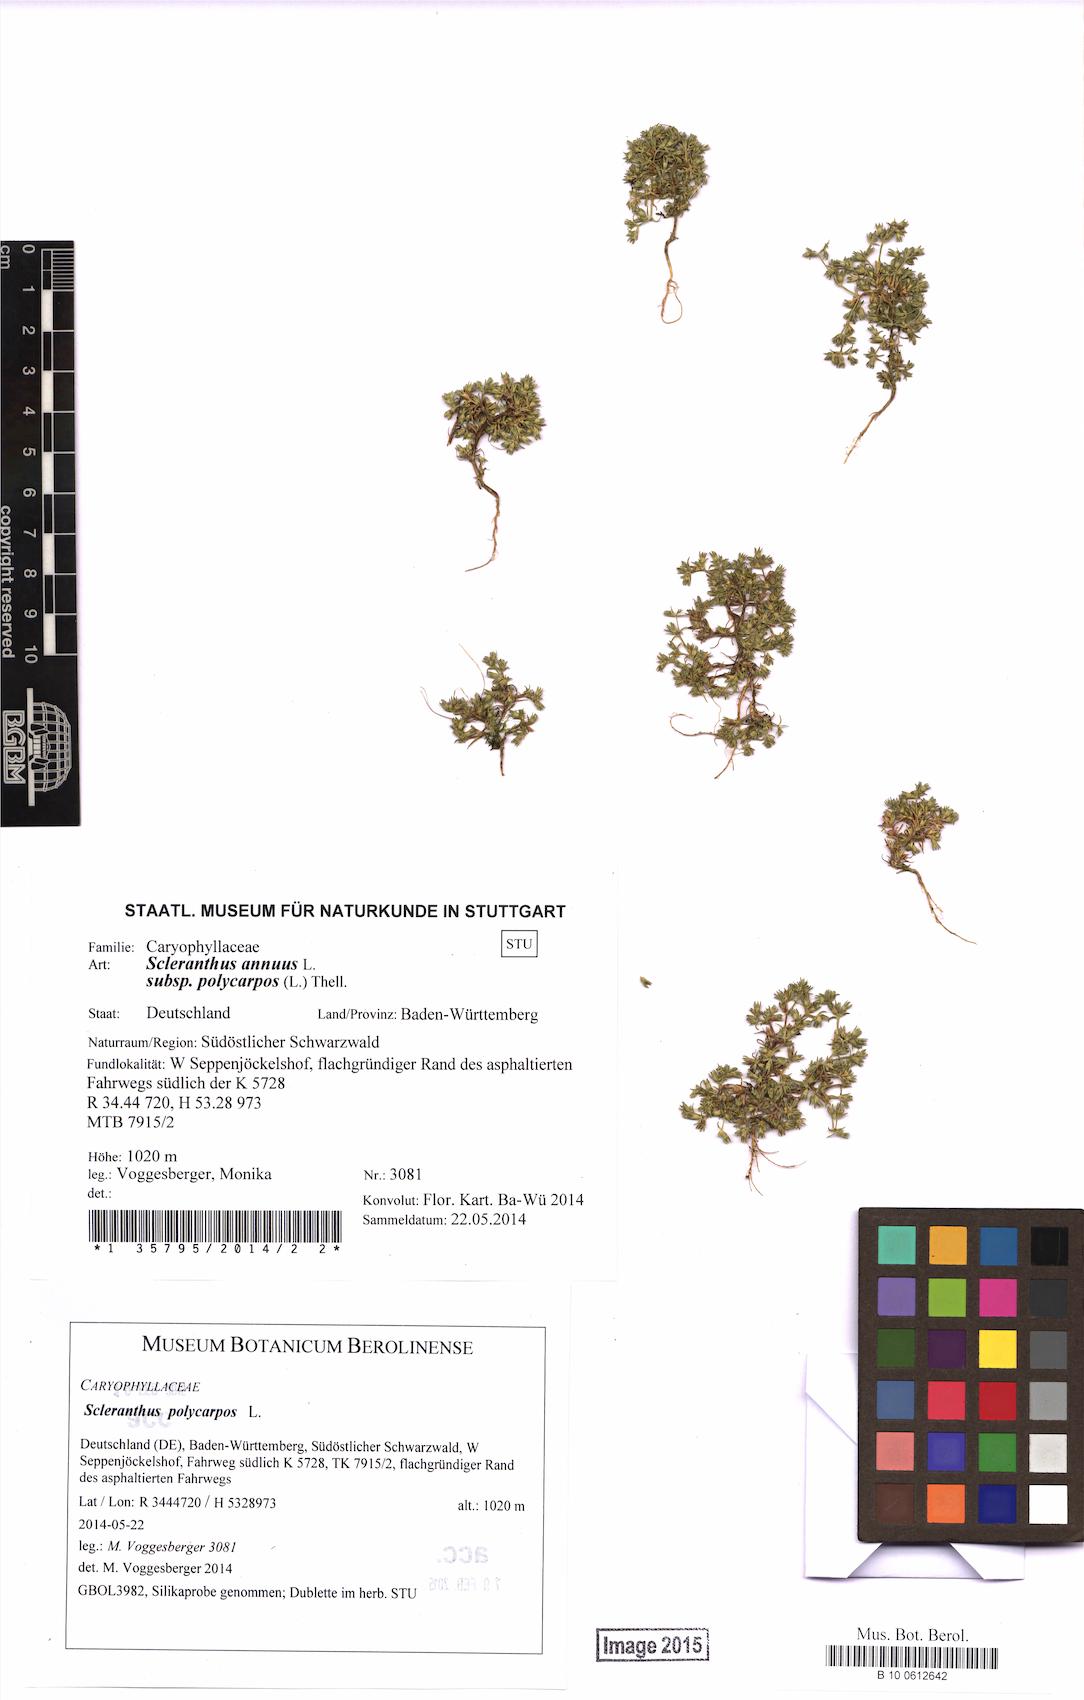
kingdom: Plantae
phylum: Tracheophyta
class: Magnoliopsida
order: Caryophyllales
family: Caryophyllaceae
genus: Scleranthus
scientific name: Scleranthus annuus
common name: Annual knawel
